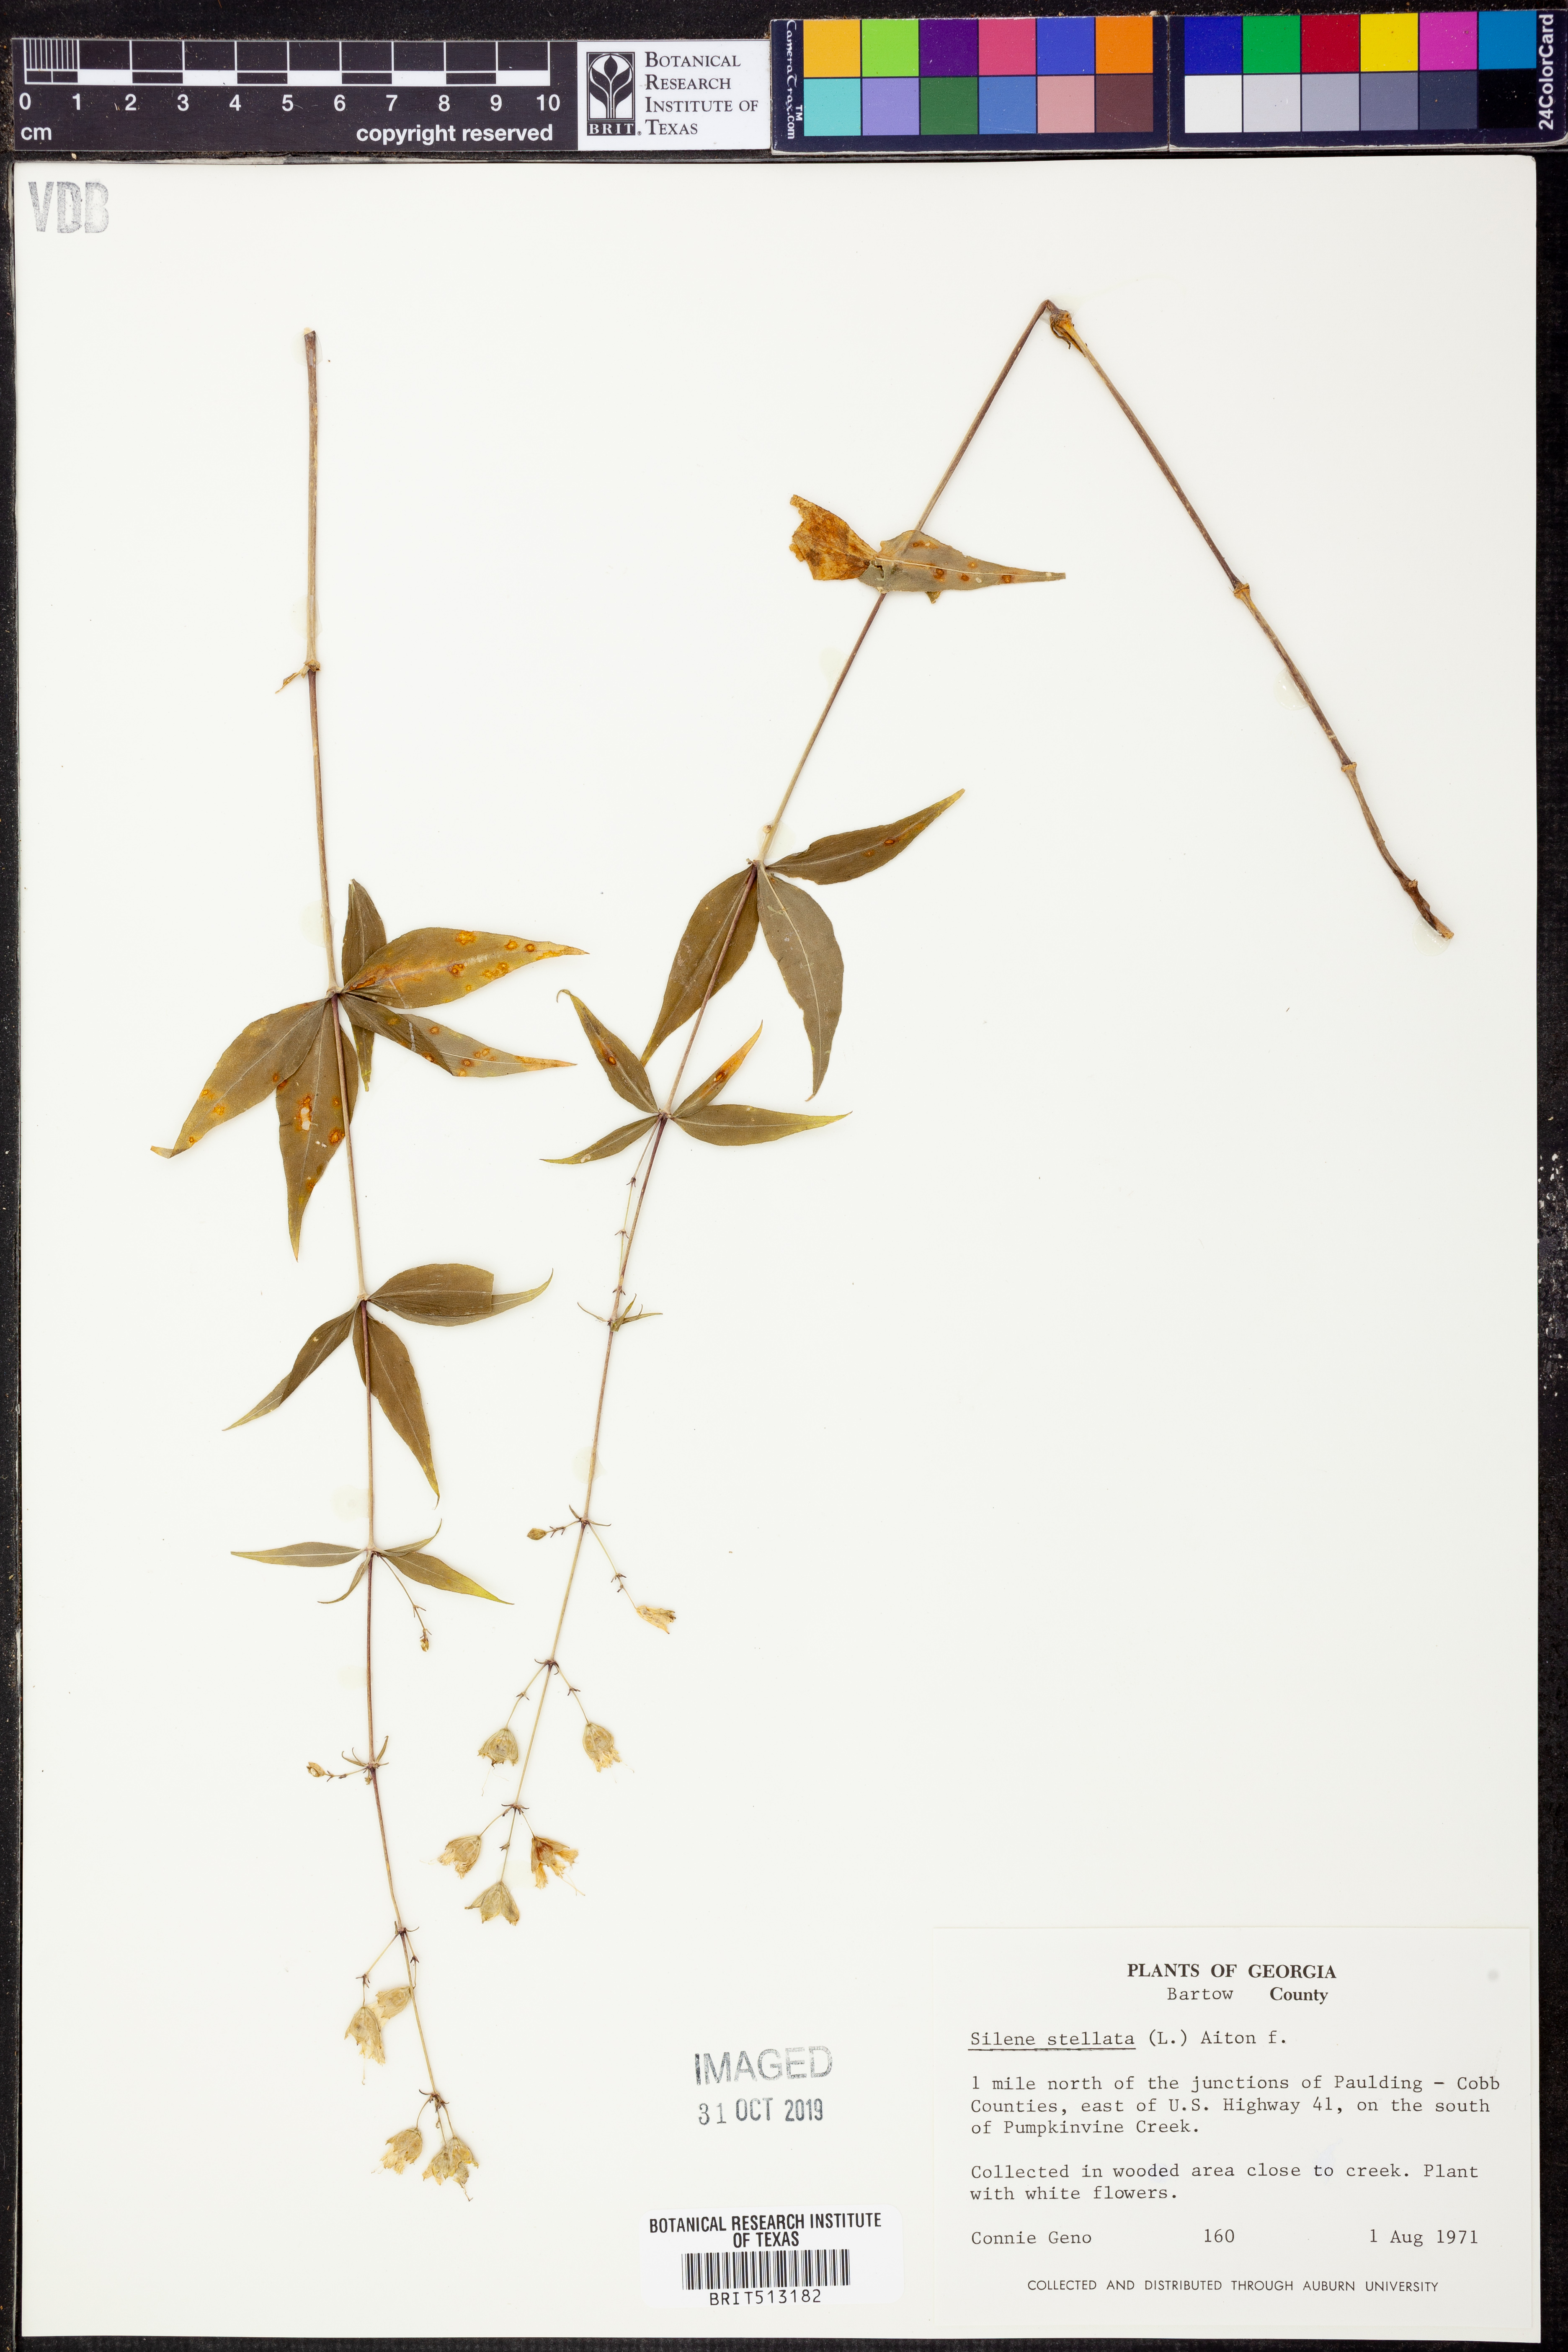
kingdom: Plantae
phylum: Tracheophyta
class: Magnoliopsida
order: Caryophyllales
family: Caryophyllaceae
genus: Silene
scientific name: Silene stellata
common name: Starry campion
